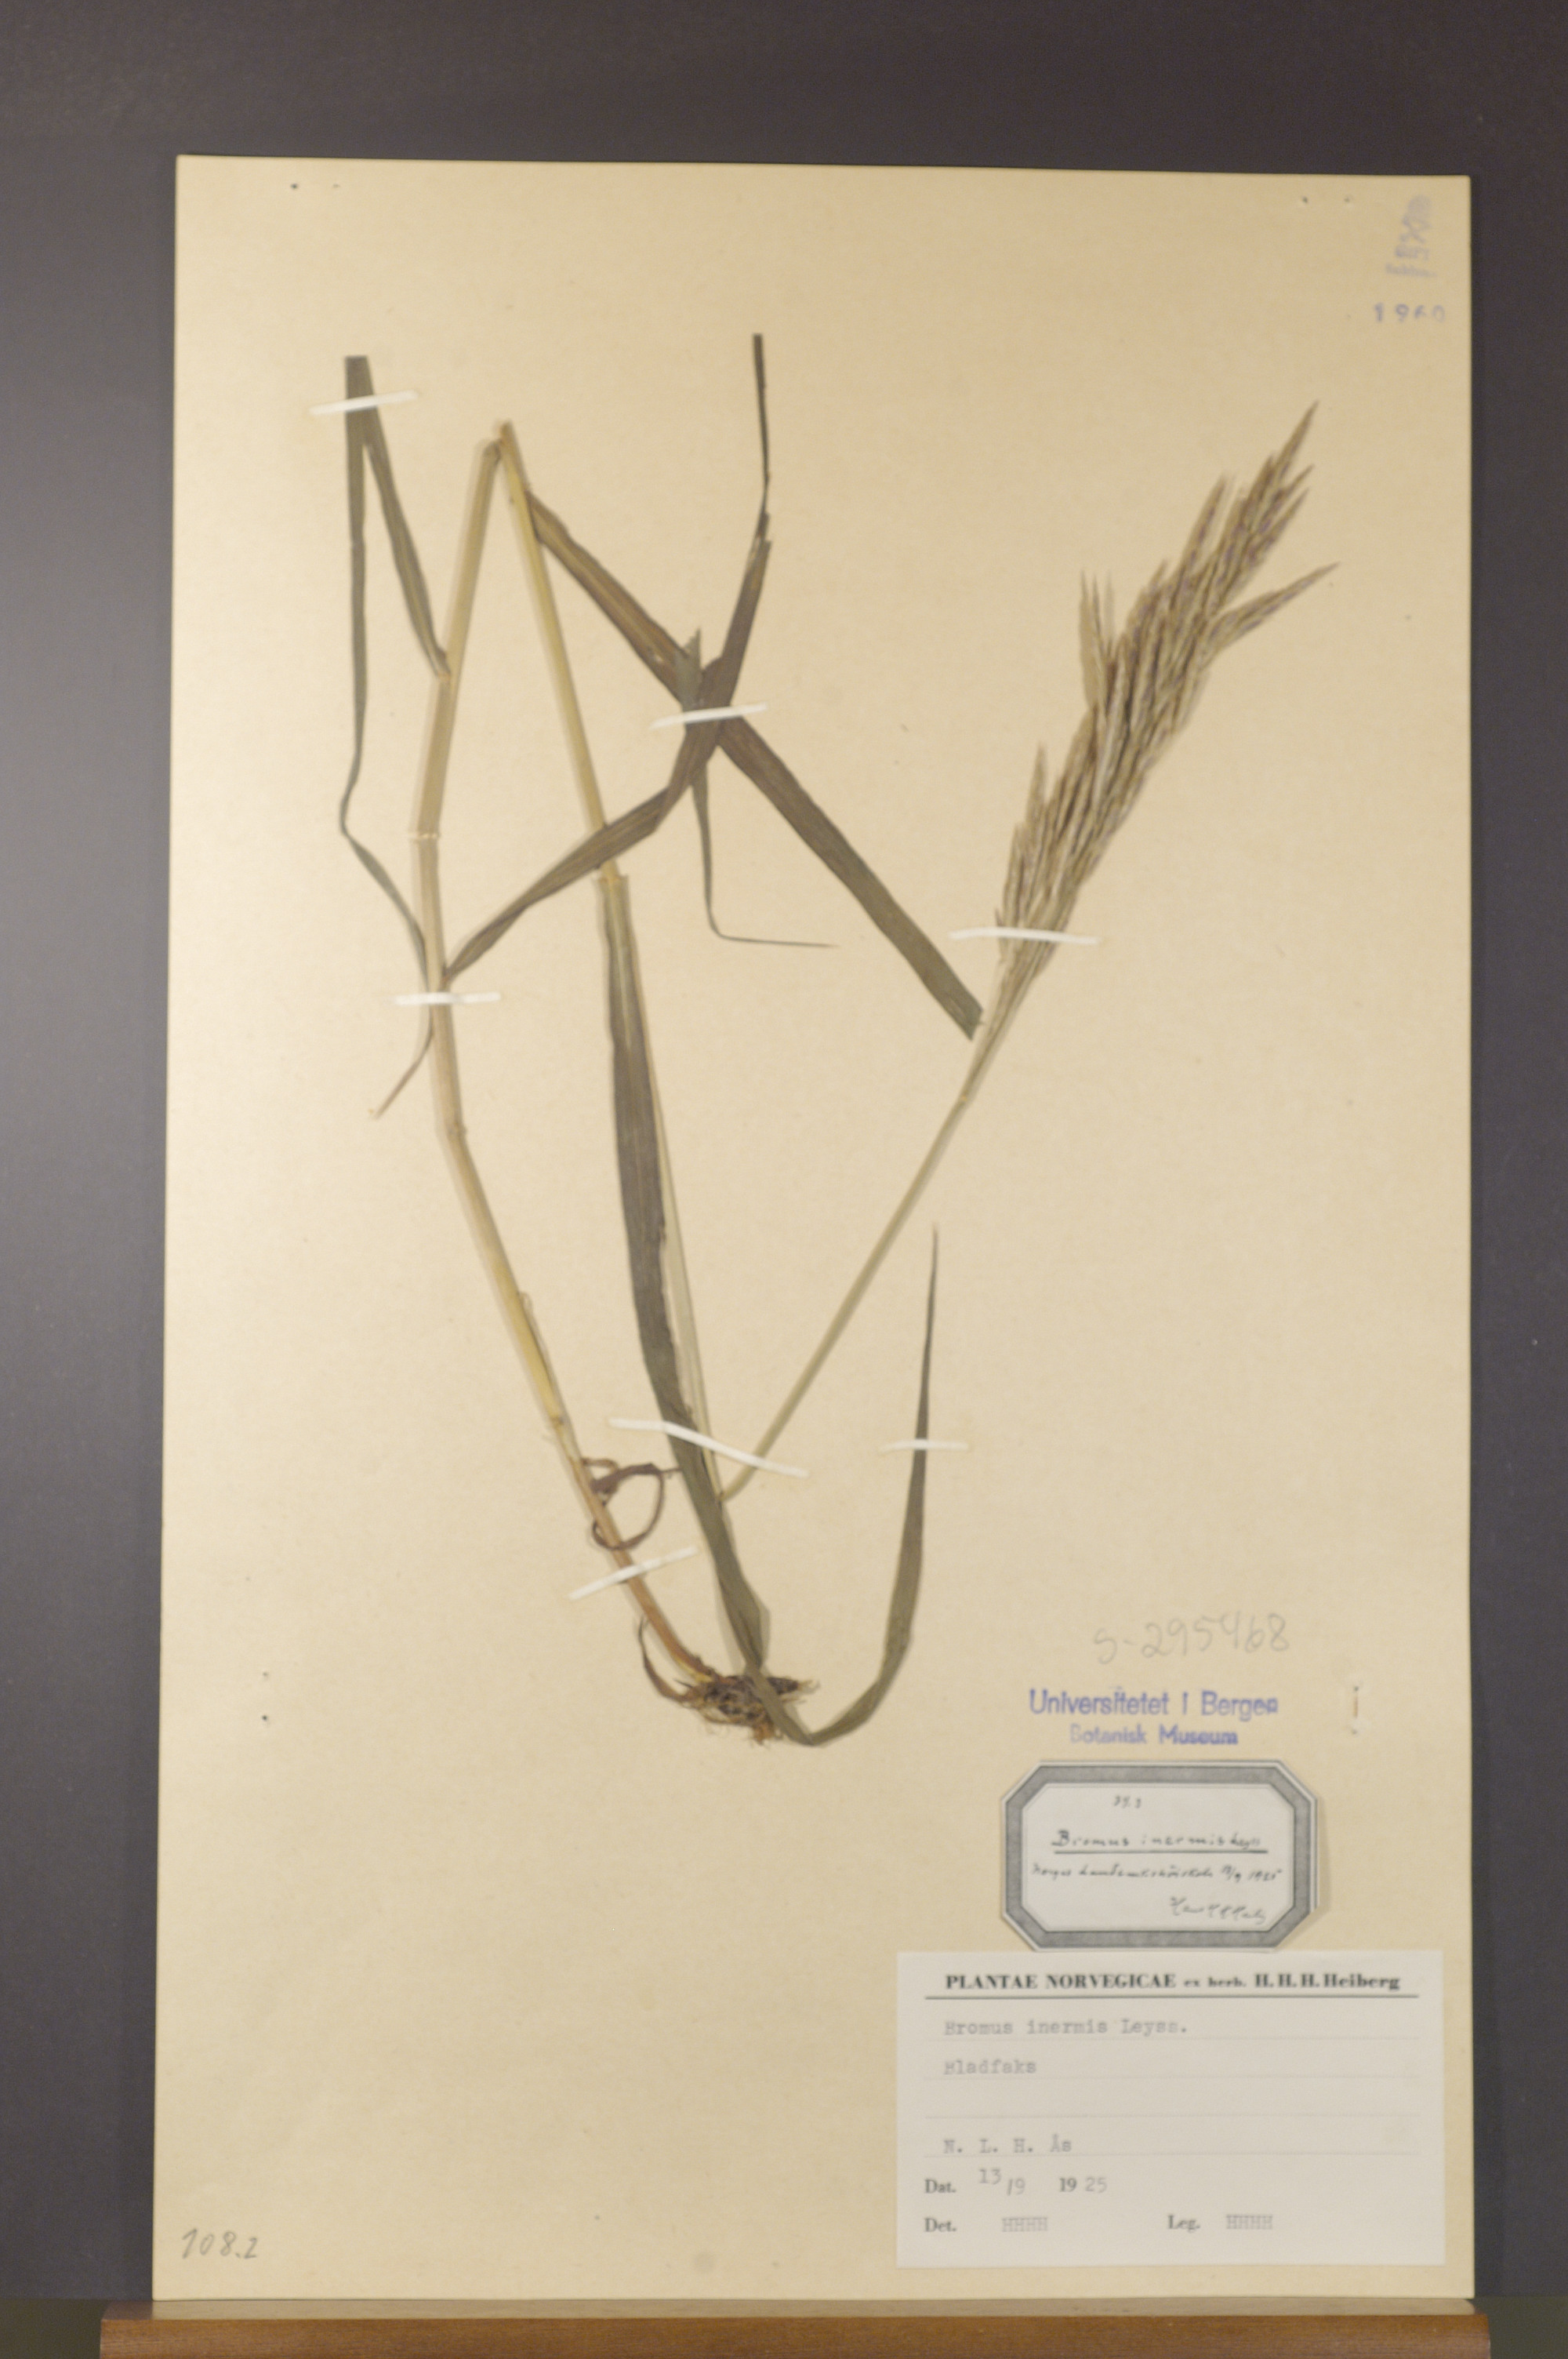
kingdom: Plantae
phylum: Tracheophyta
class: Liliopsida
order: Poales
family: Poaceae
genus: Bromus
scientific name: Bromus inermis
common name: Smooth brome
